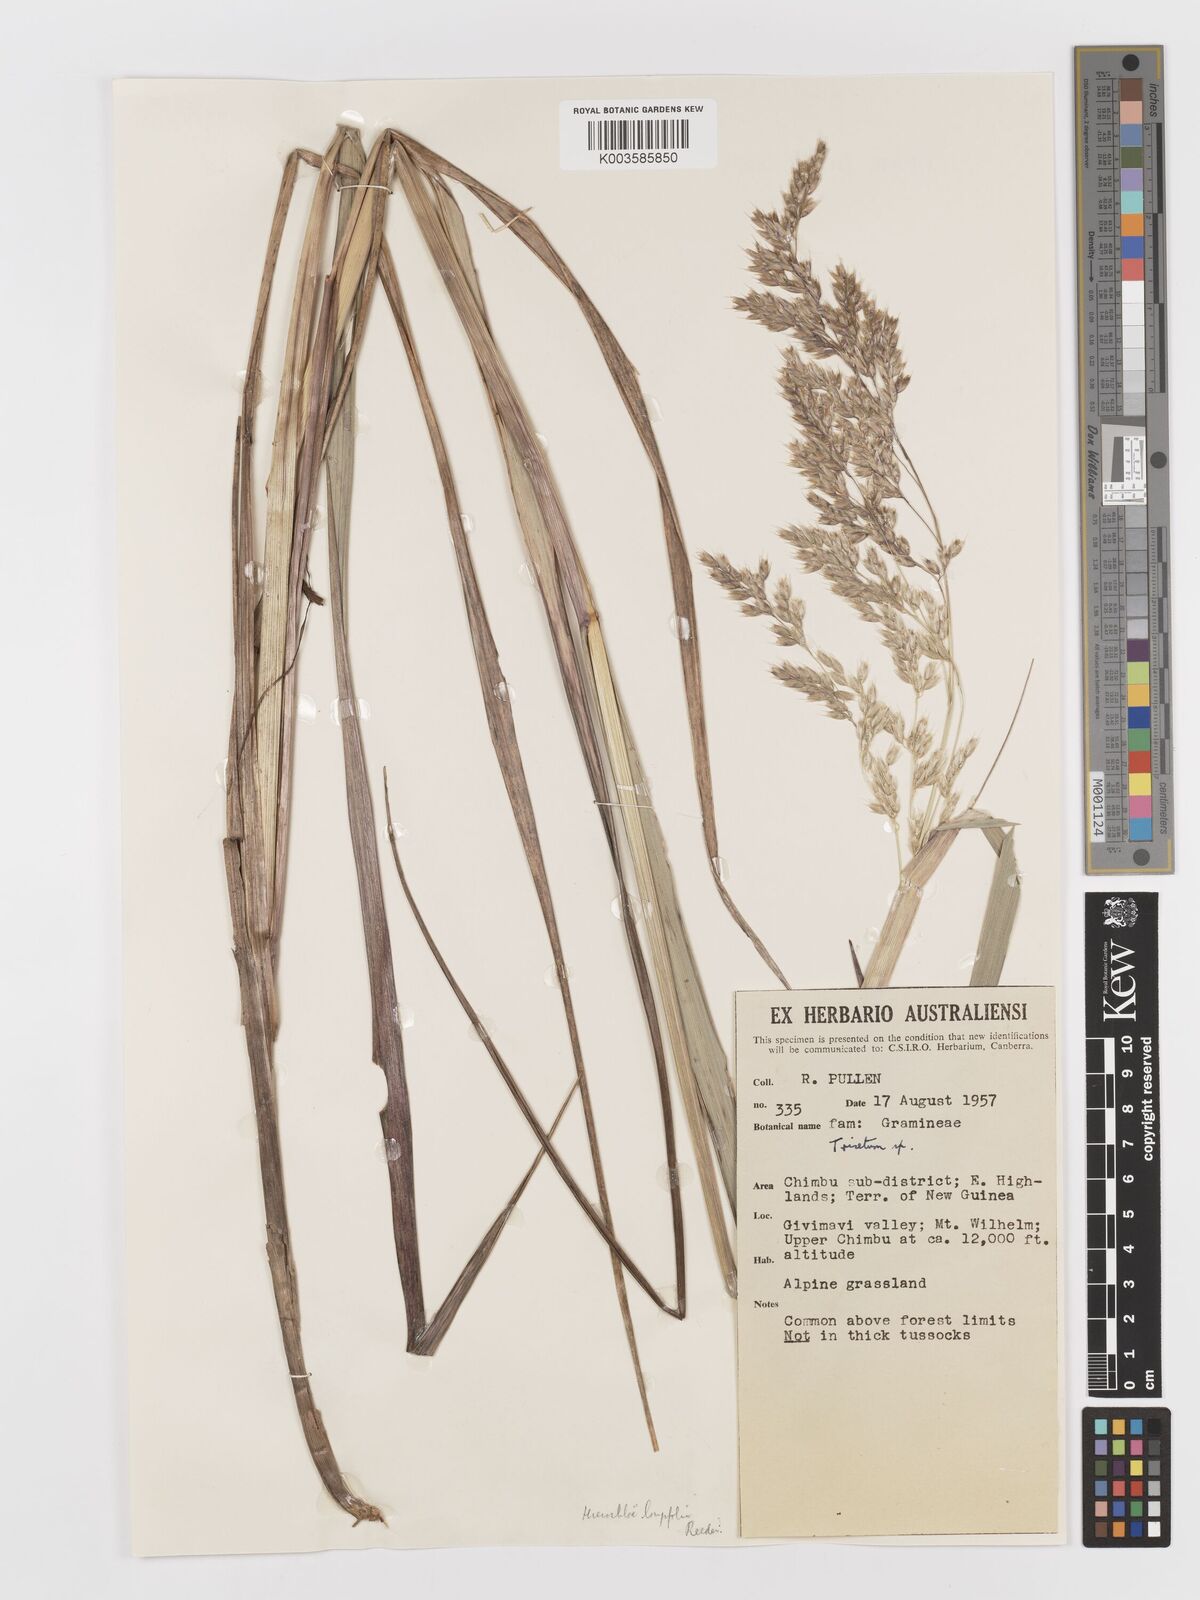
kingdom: Plantae
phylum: Tracheophyta
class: Liliopsida
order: Poales
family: Poaceae
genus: Anthoxanthum
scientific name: Anthoxanthum redolens
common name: Sweet holy grass
